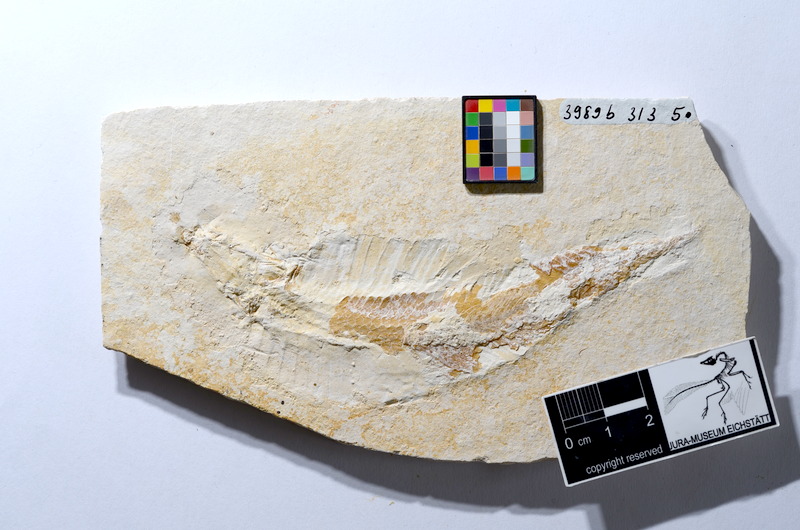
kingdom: Animalia
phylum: Chordata
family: Pleuropholidae
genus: Pleuropholis
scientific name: Pleuropholis
